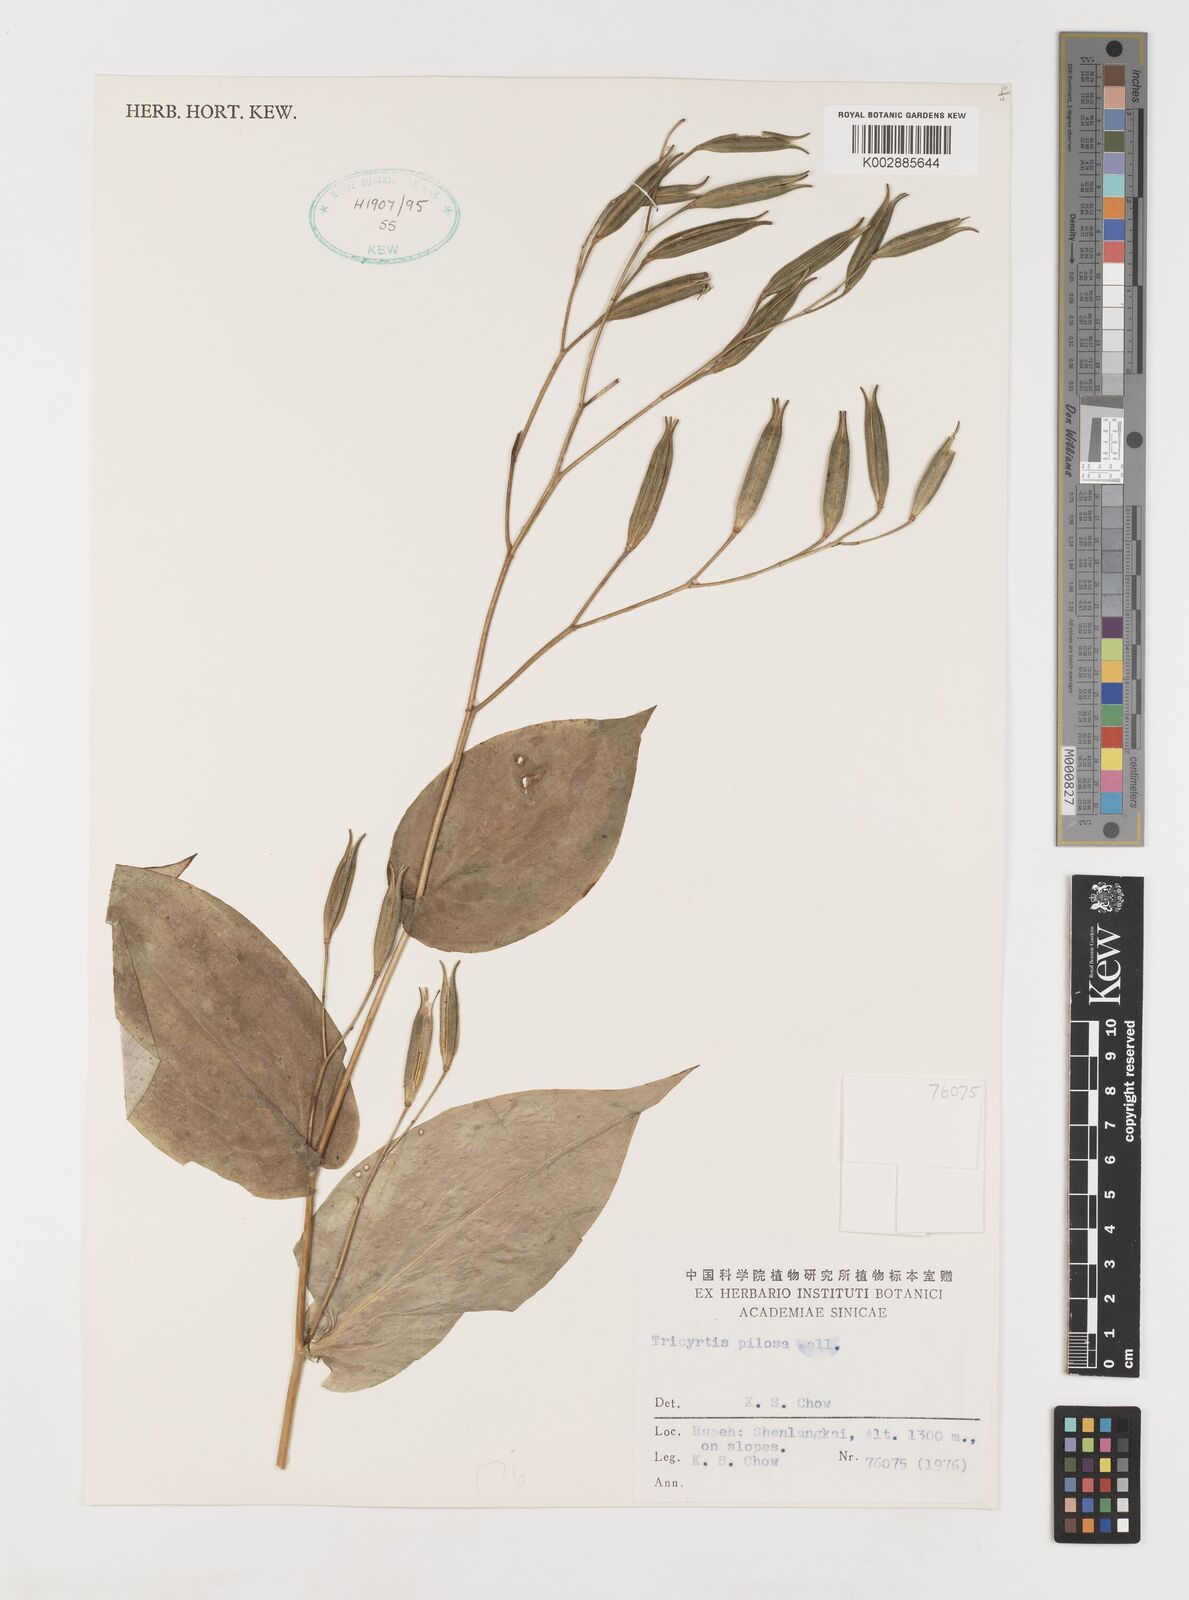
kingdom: Plantae
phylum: Tracheophyta
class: Liliopsida
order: Liliales
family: Liliaceae
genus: Tricyrtis
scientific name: Tricyrtis maculata
